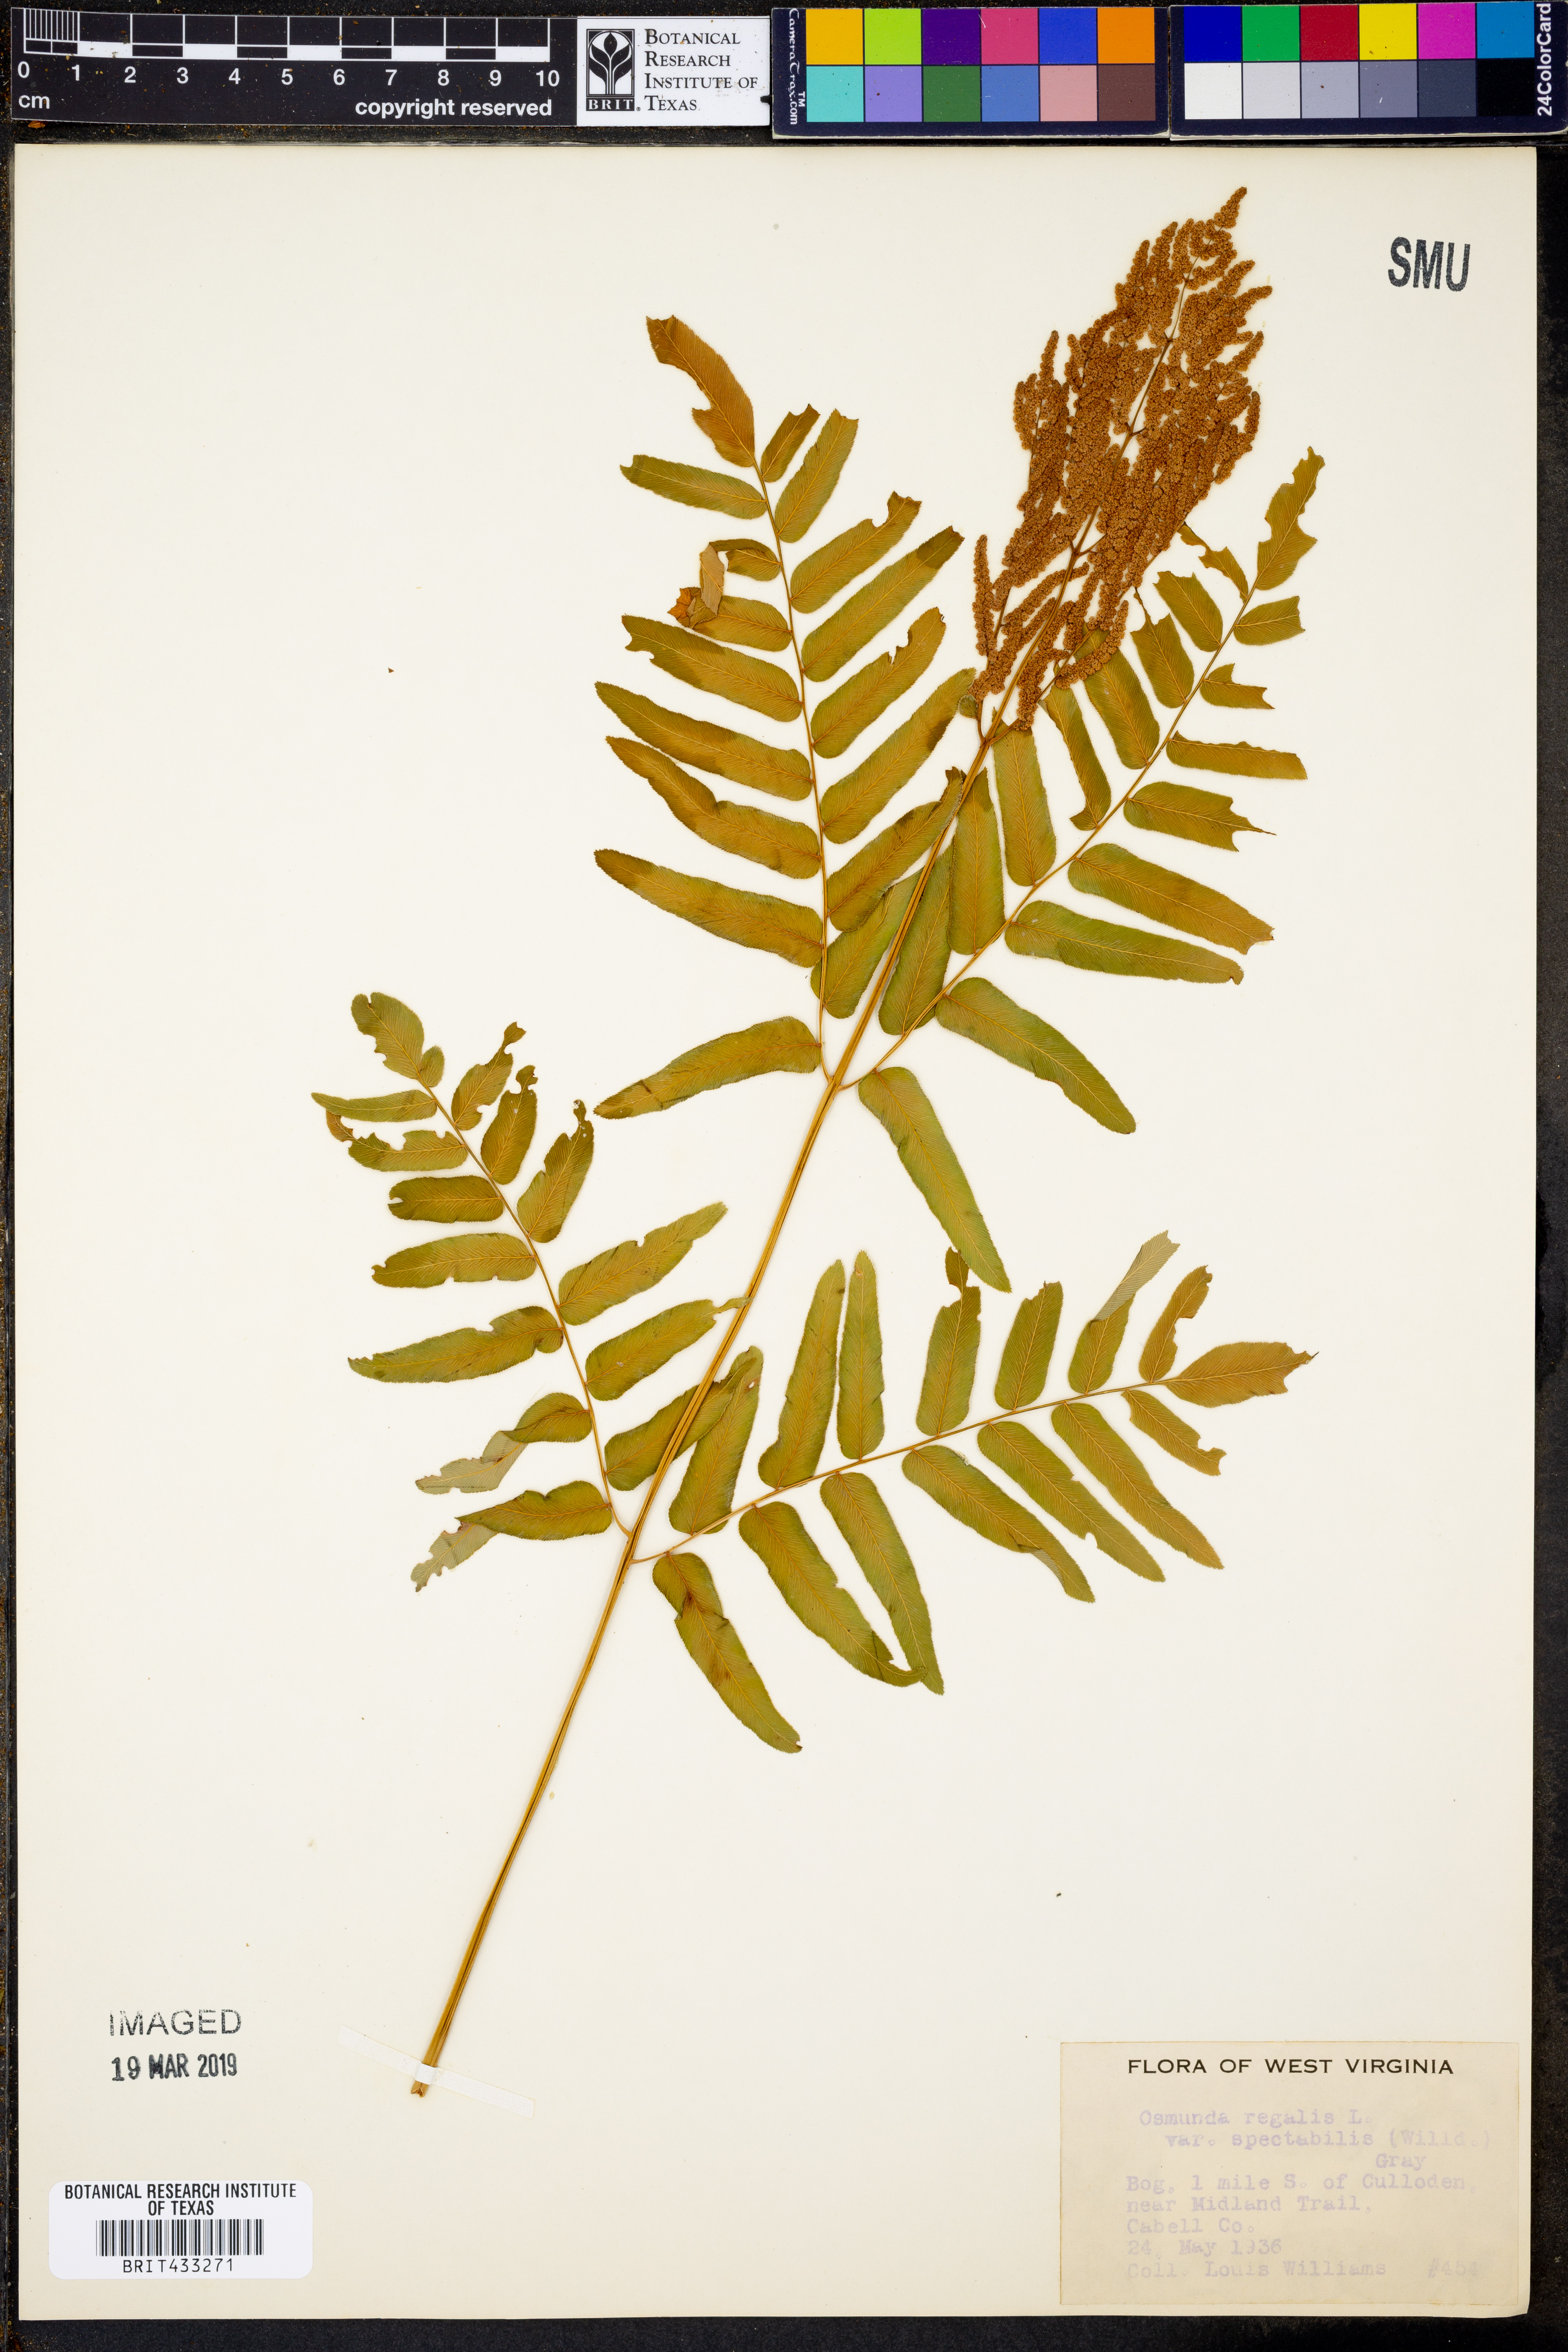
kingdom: Plantae
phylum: Tracheophyta
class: Polypodiopsida
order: Osmundales
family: Osmundaceae
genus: Osmunda
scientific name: Osmunda spectabilis
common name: American royal fern
